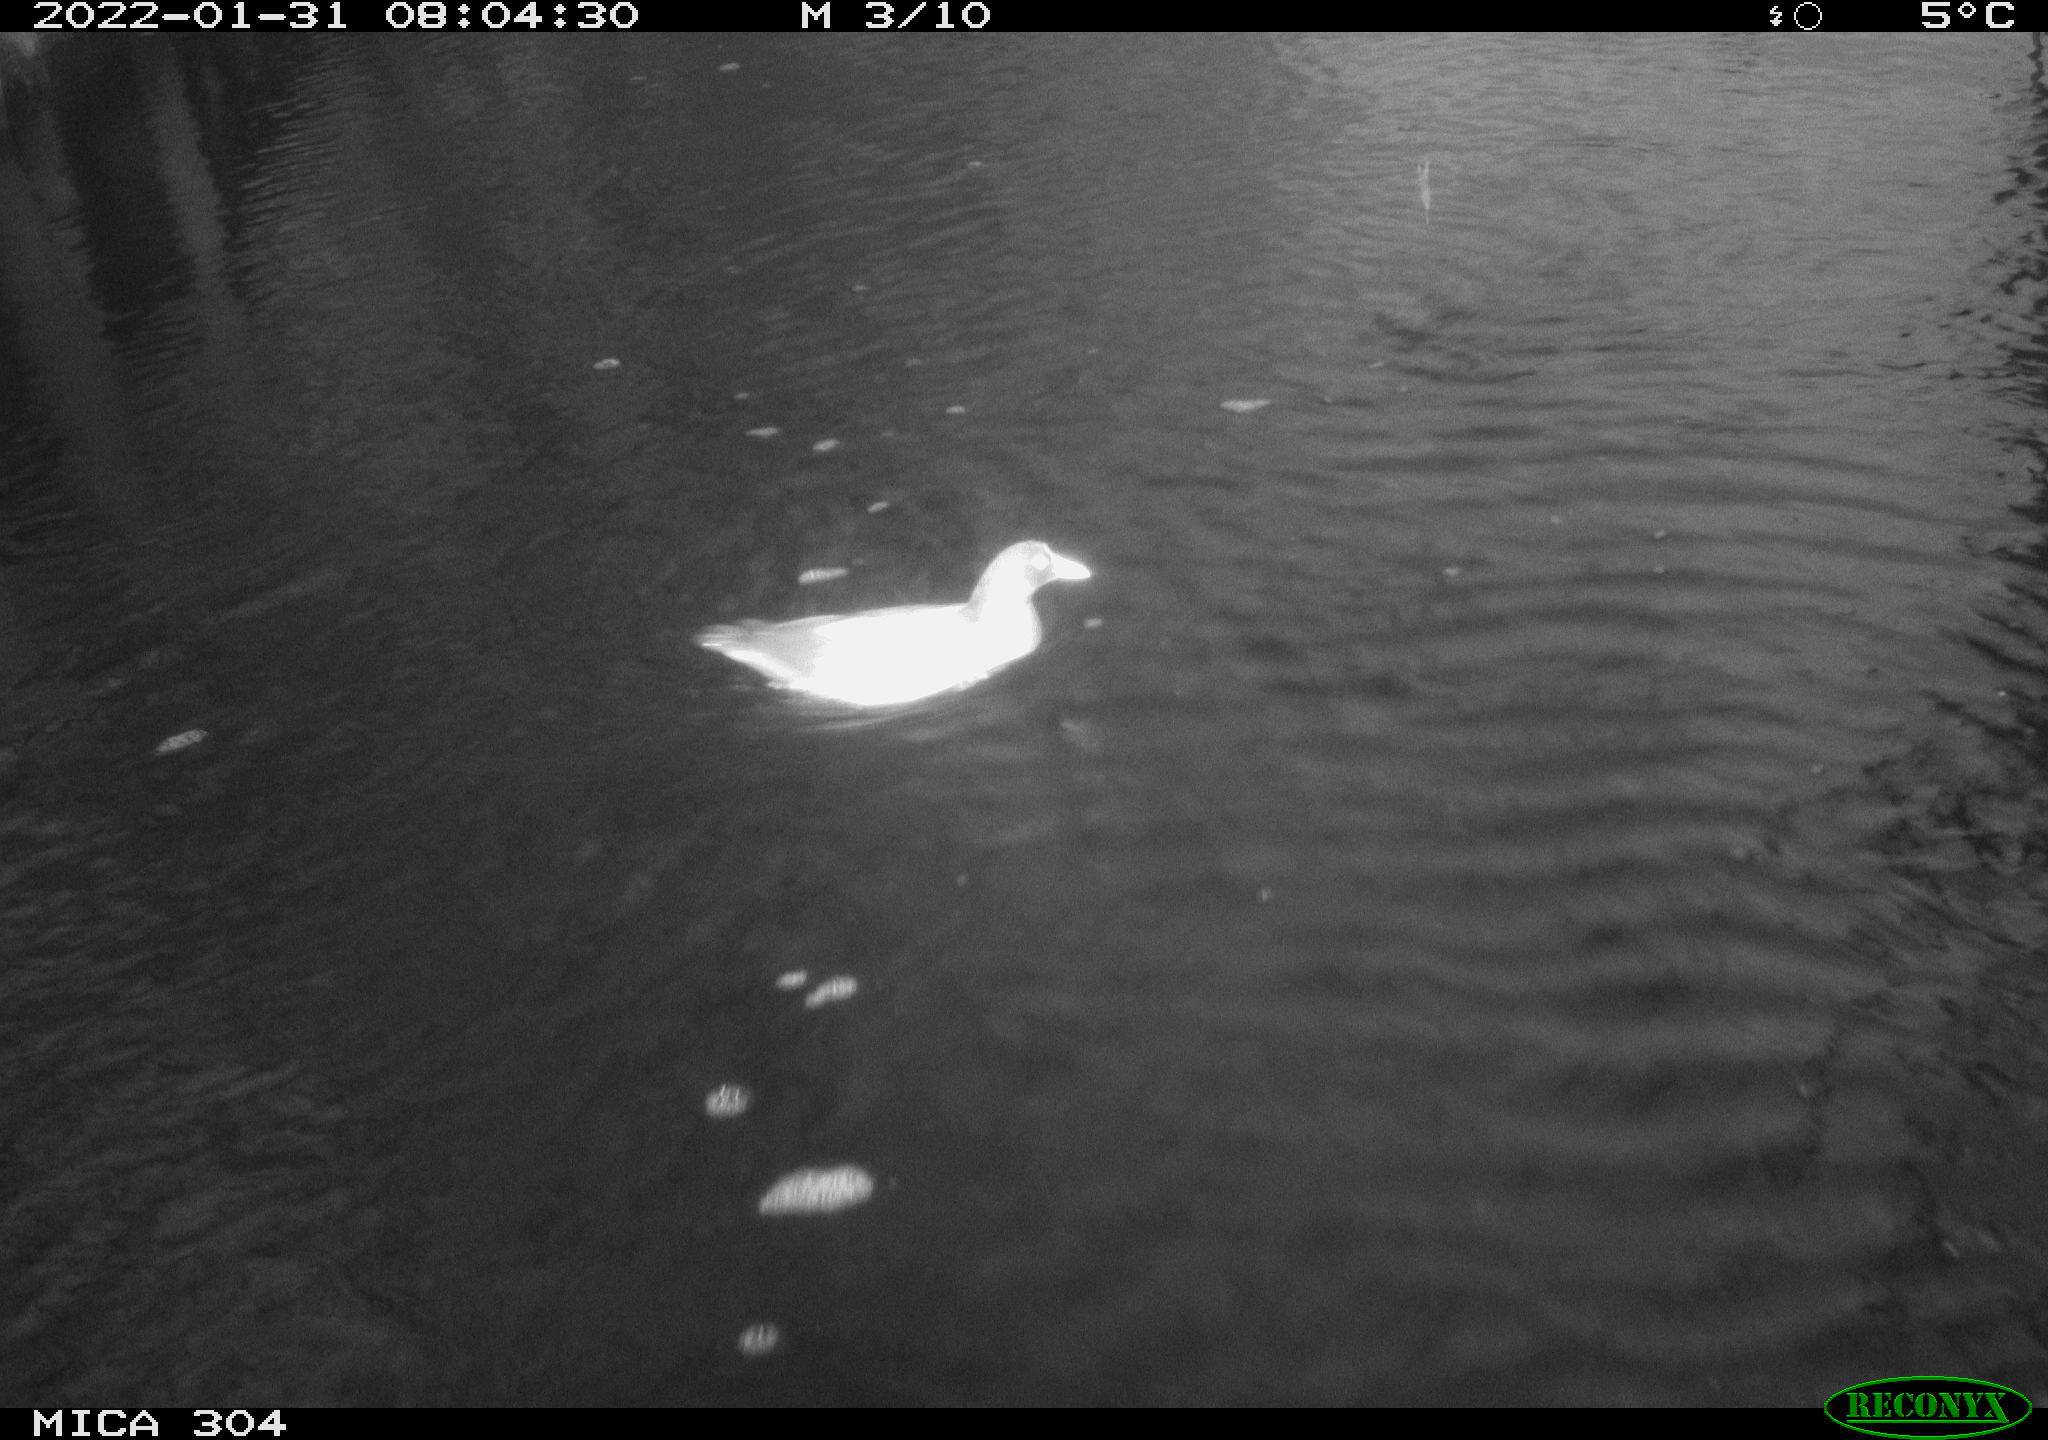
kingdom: Animalia
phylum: Chordata
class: Aves
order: Gruiformes
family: Rallidae
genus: Gallinula
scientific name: Gallinula chloropus
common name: Common moorhen
